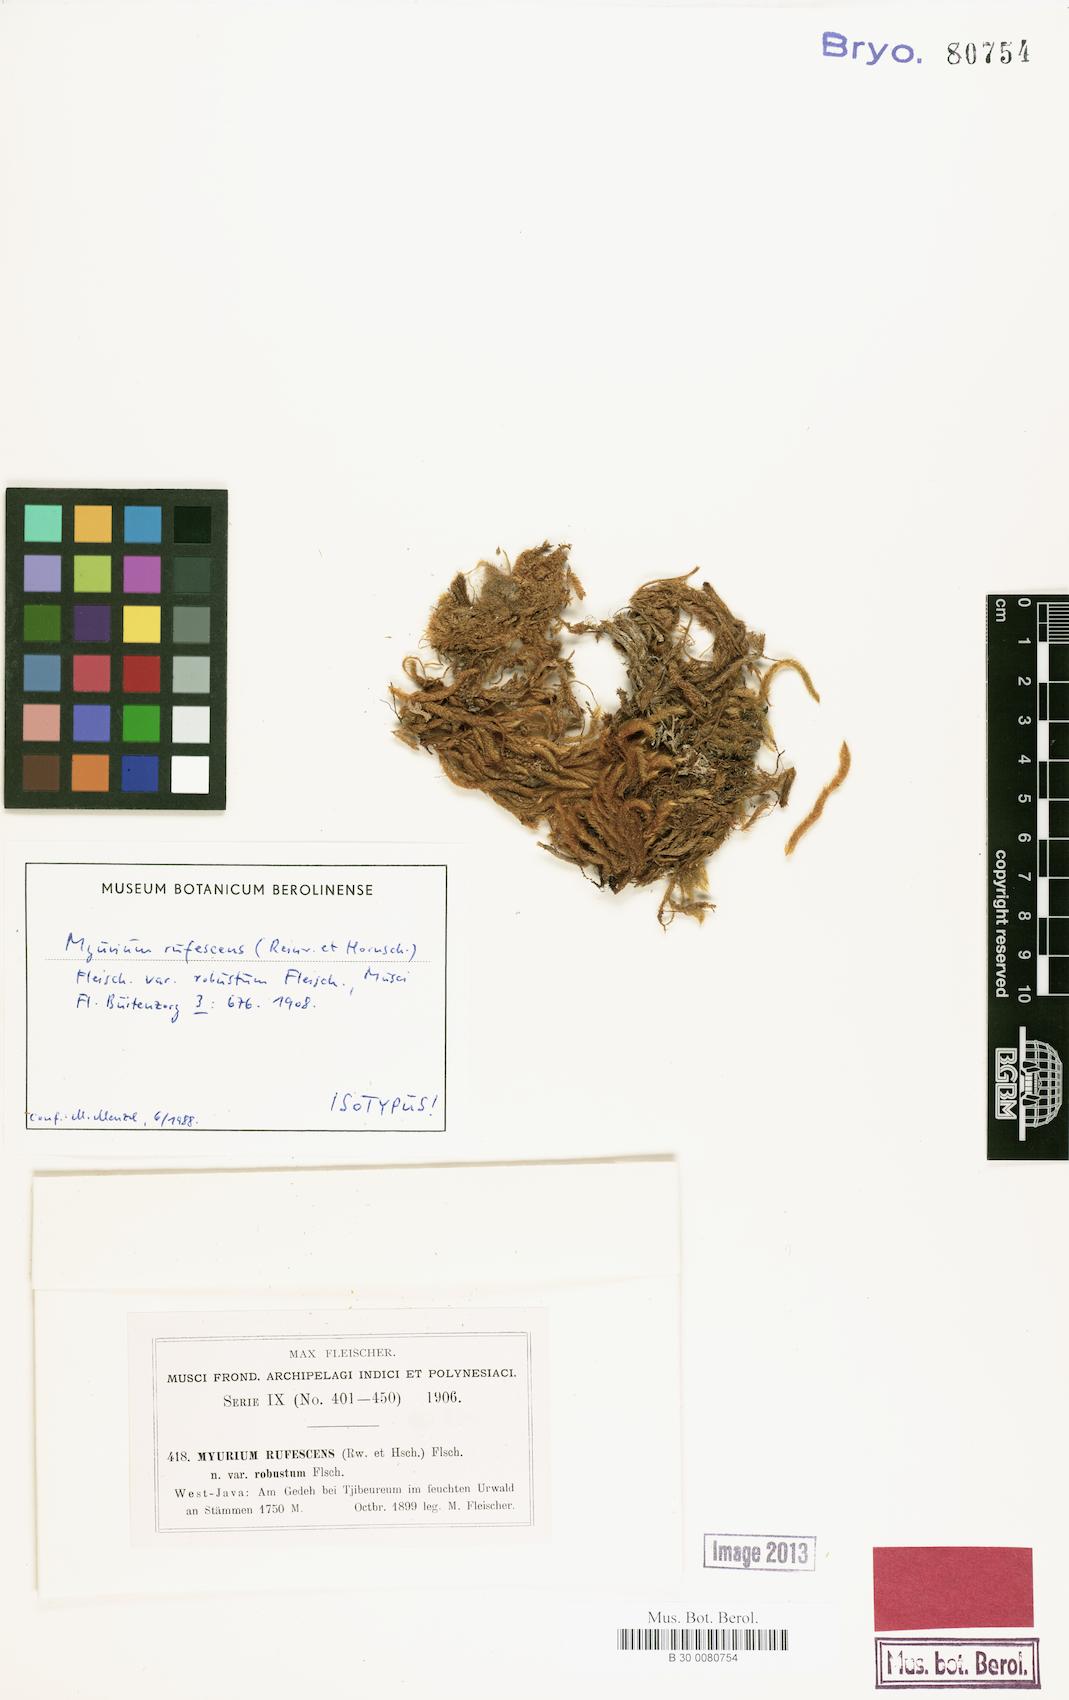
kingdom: Plantae
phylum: Bryophyta
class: Bryopsida
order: Hypnales
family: Myuriaceae
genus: Oedicladium
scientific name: Oedicladium rufescens
